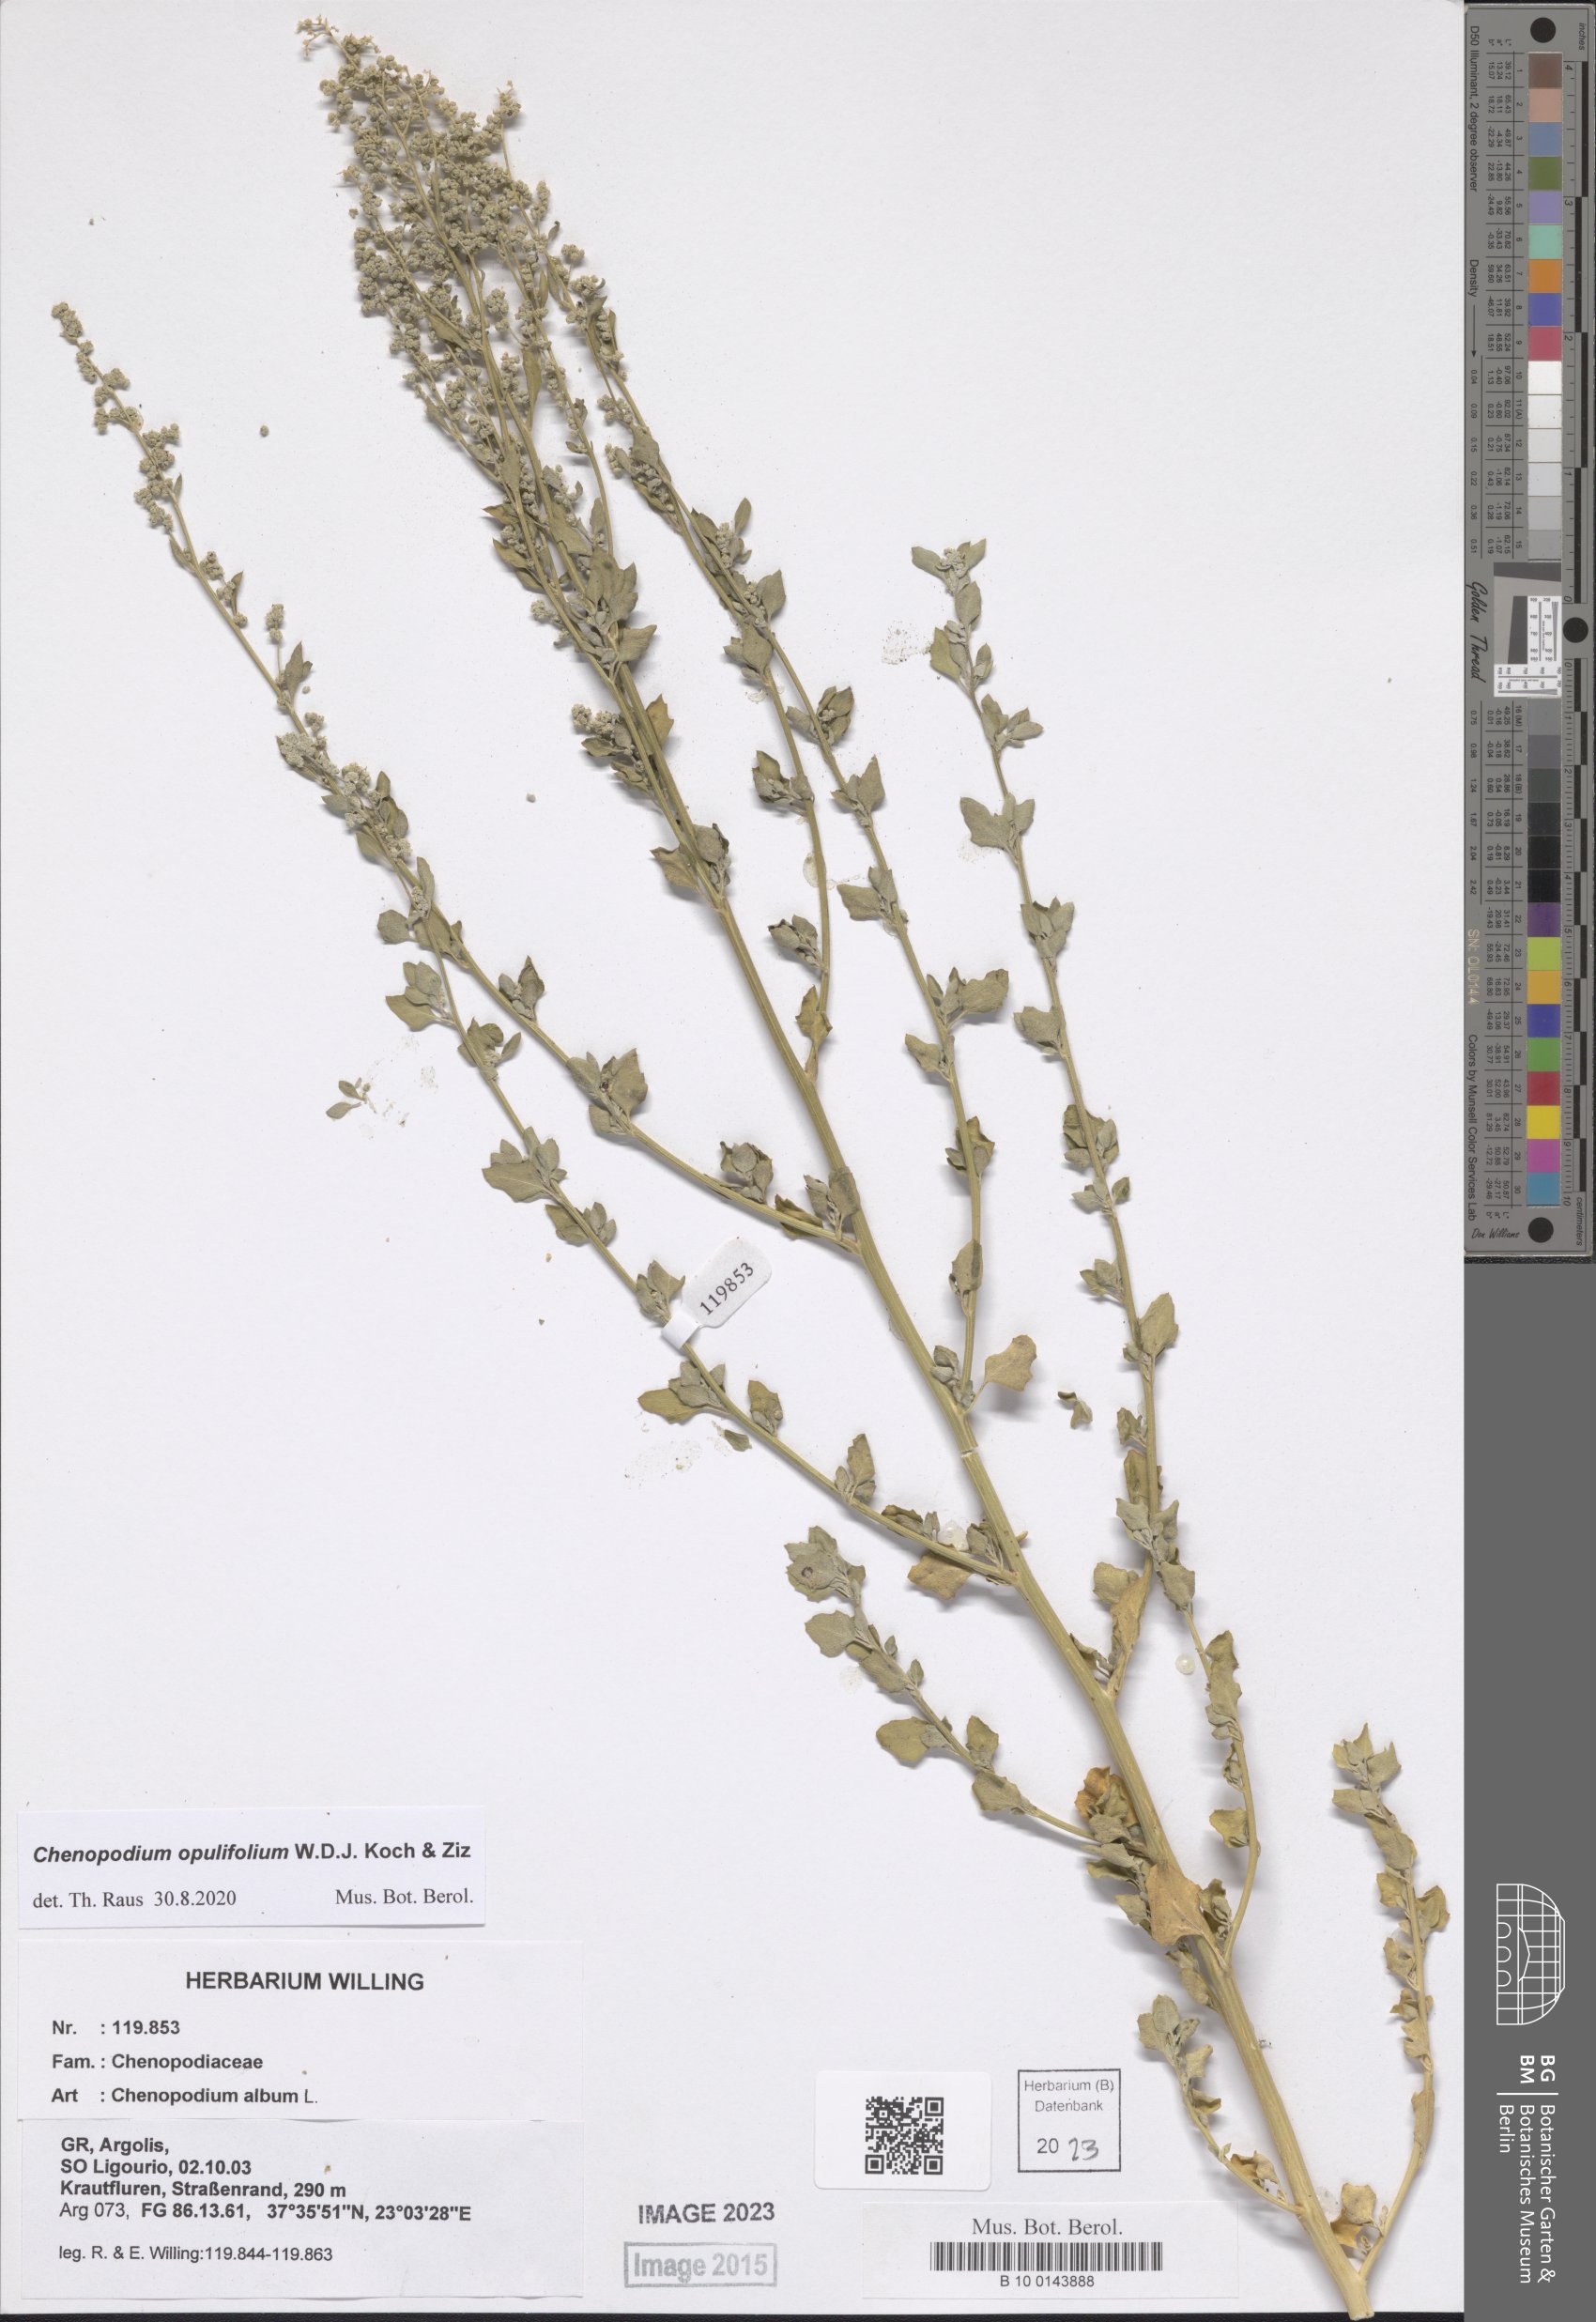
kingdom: Plantae
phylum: Tracheophyta
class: Magnoliopsida
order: Caryophyllales
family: Amaranthaceae
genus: Chenopodium
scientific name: Chenopodium opulifolium
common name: Grey goosefoot
